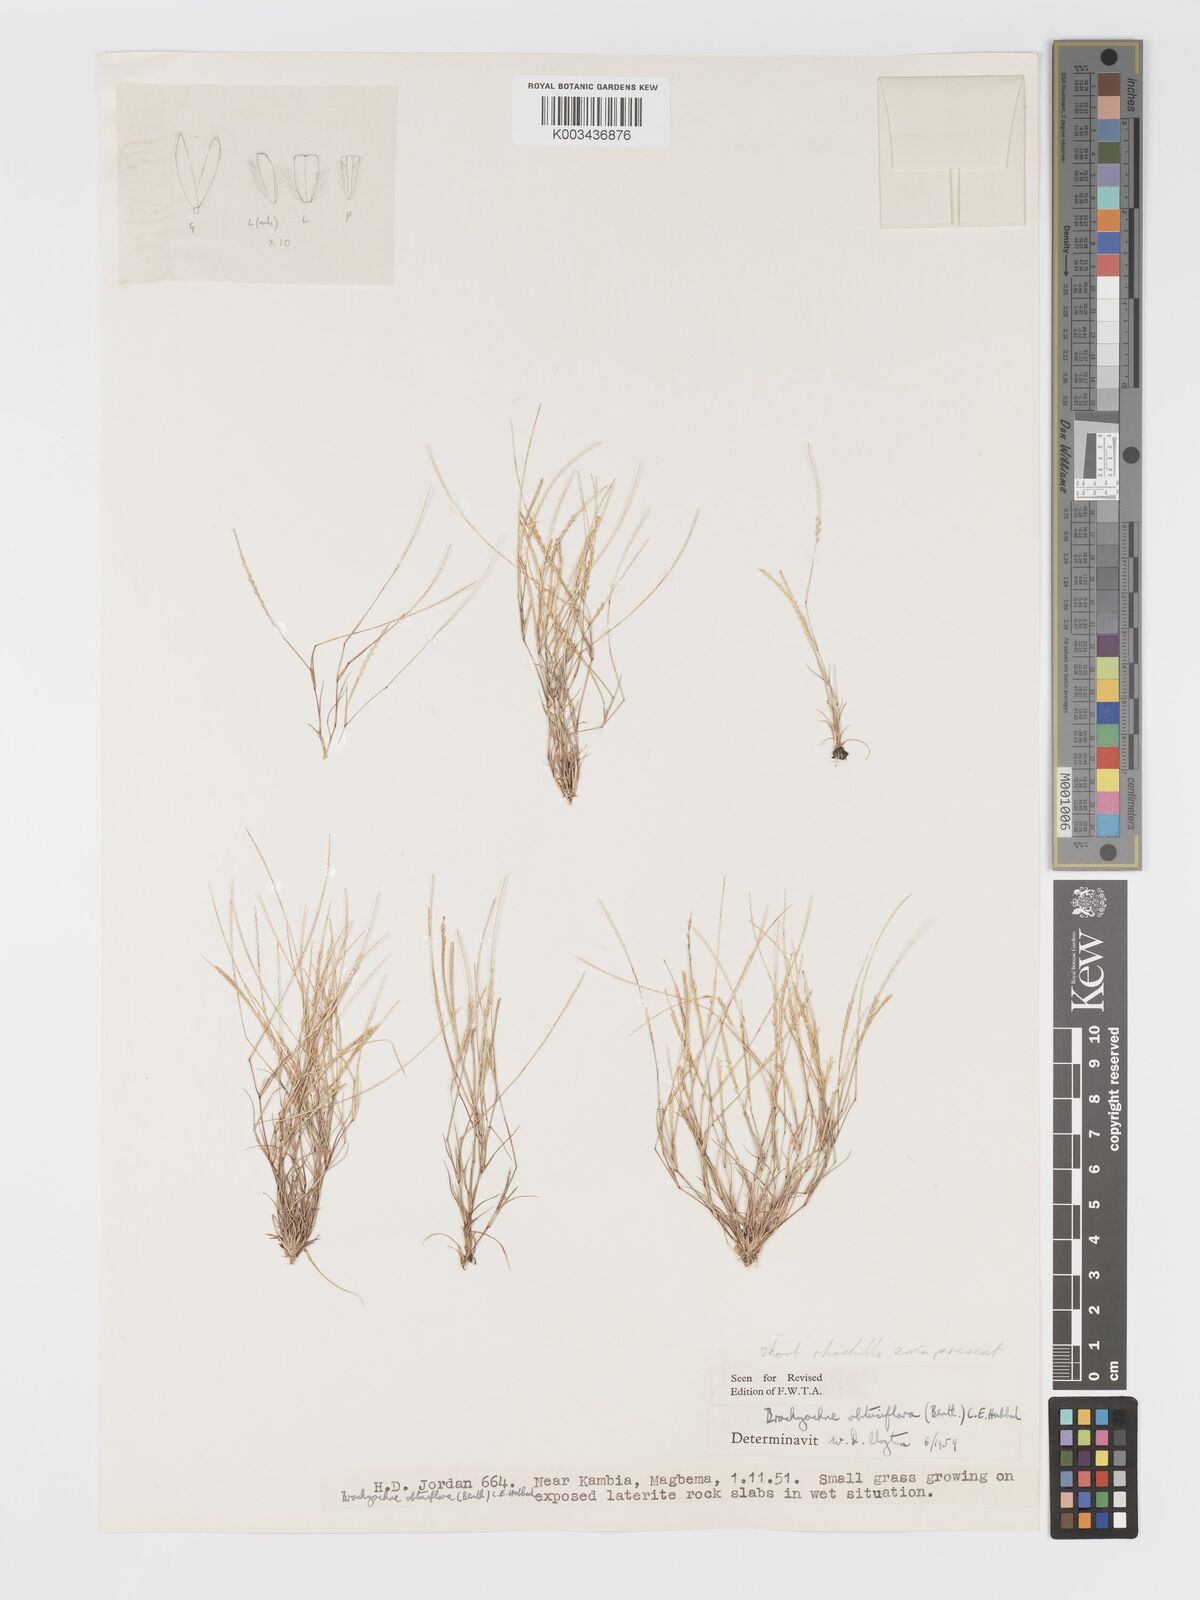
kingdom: Plantae
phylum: Tracheophyta
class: Liliopsida
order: Poales
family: Poaceae
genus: Micrachne
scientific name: Micrachne obtusiflora
